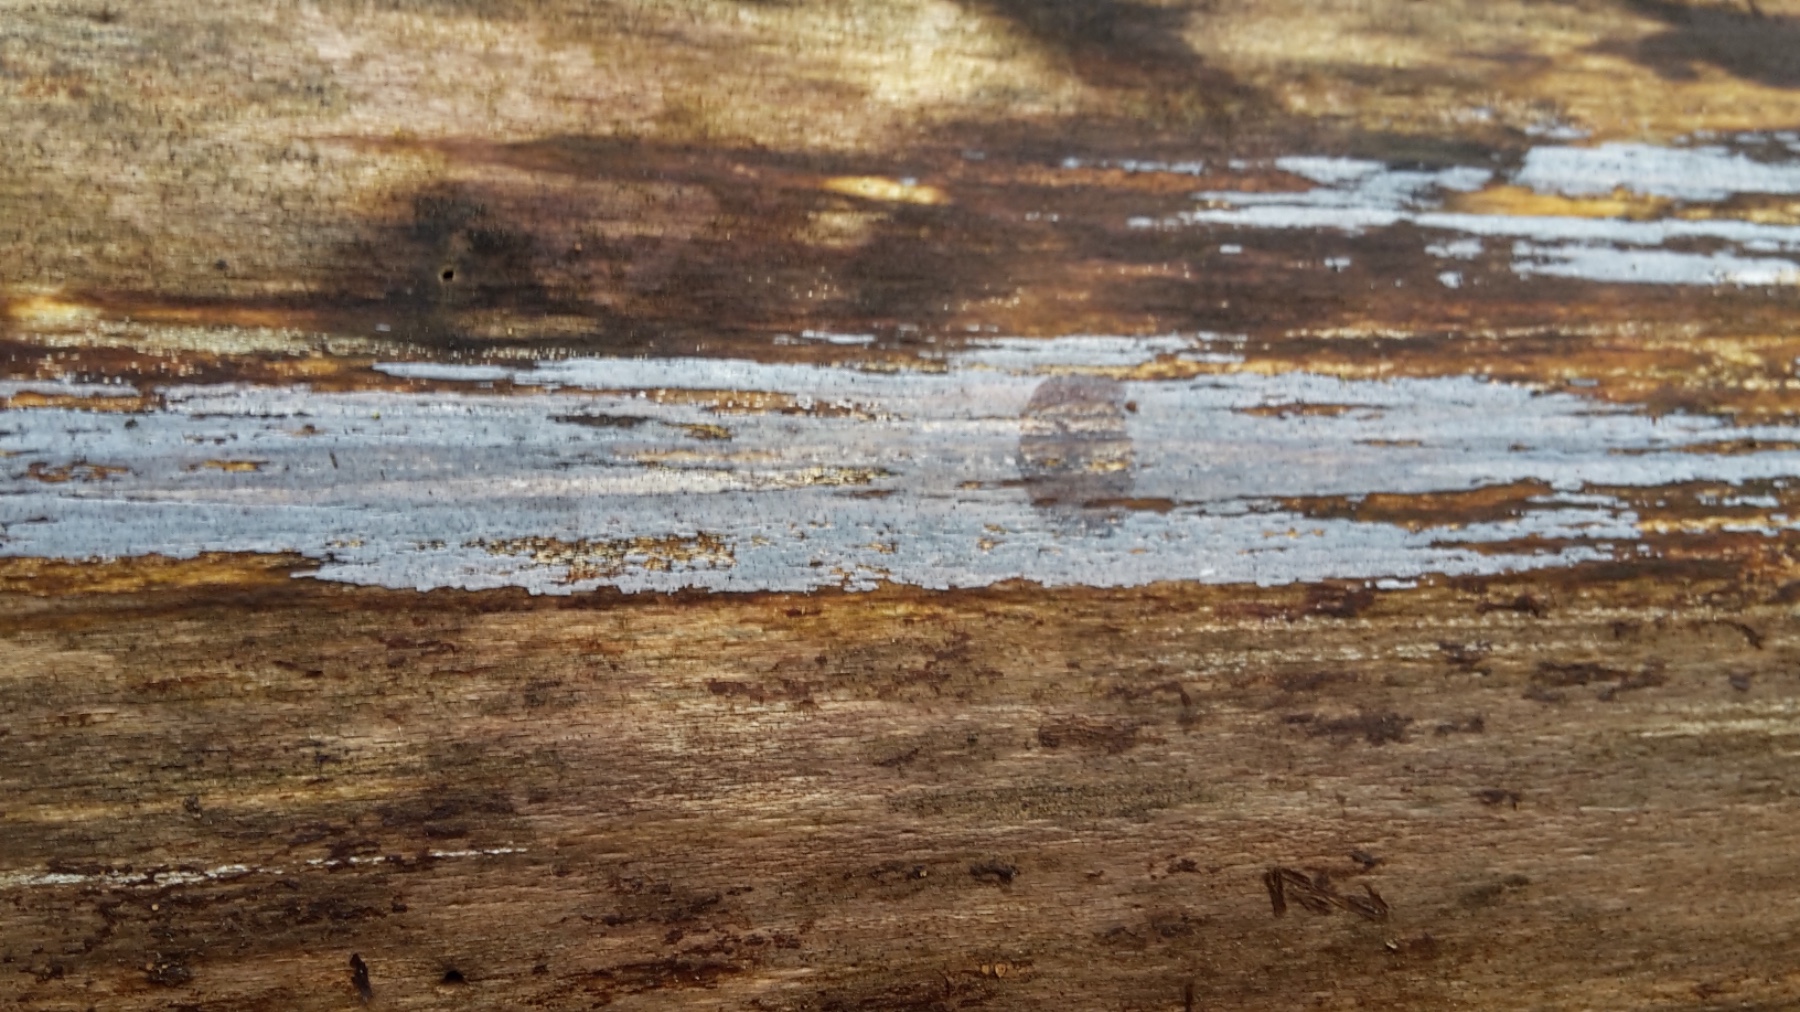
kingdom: Fungi
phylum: Basidiomycota
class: Tremellomycetes
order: Tremellales
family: Exidiaceae
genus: Exidiopsis
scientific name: Exidiopsis effusa
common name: smuk bævrehinde
